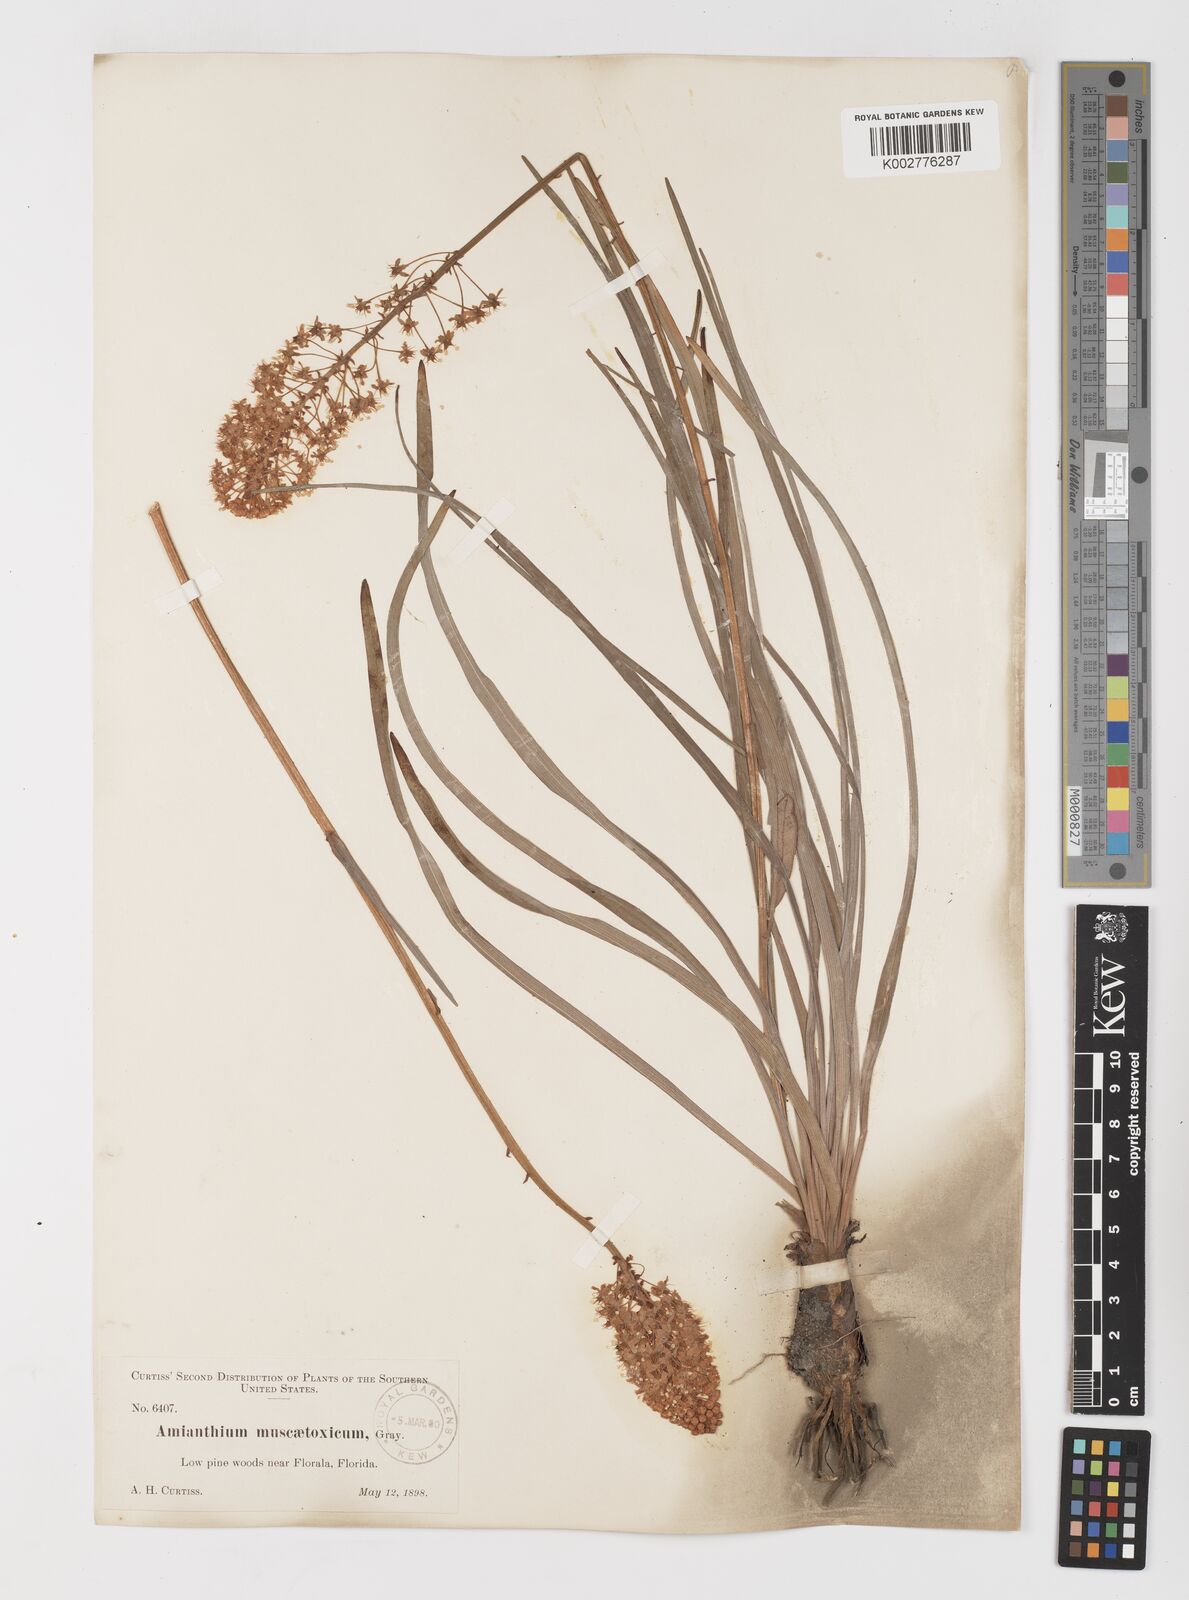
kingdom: Plantae
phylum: Tracheophyta
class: Liliopsida
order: Liliales
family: Melanthiaceae
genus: Amianthium
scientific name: Amianthium muscitoxicum
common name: Fly-poison
